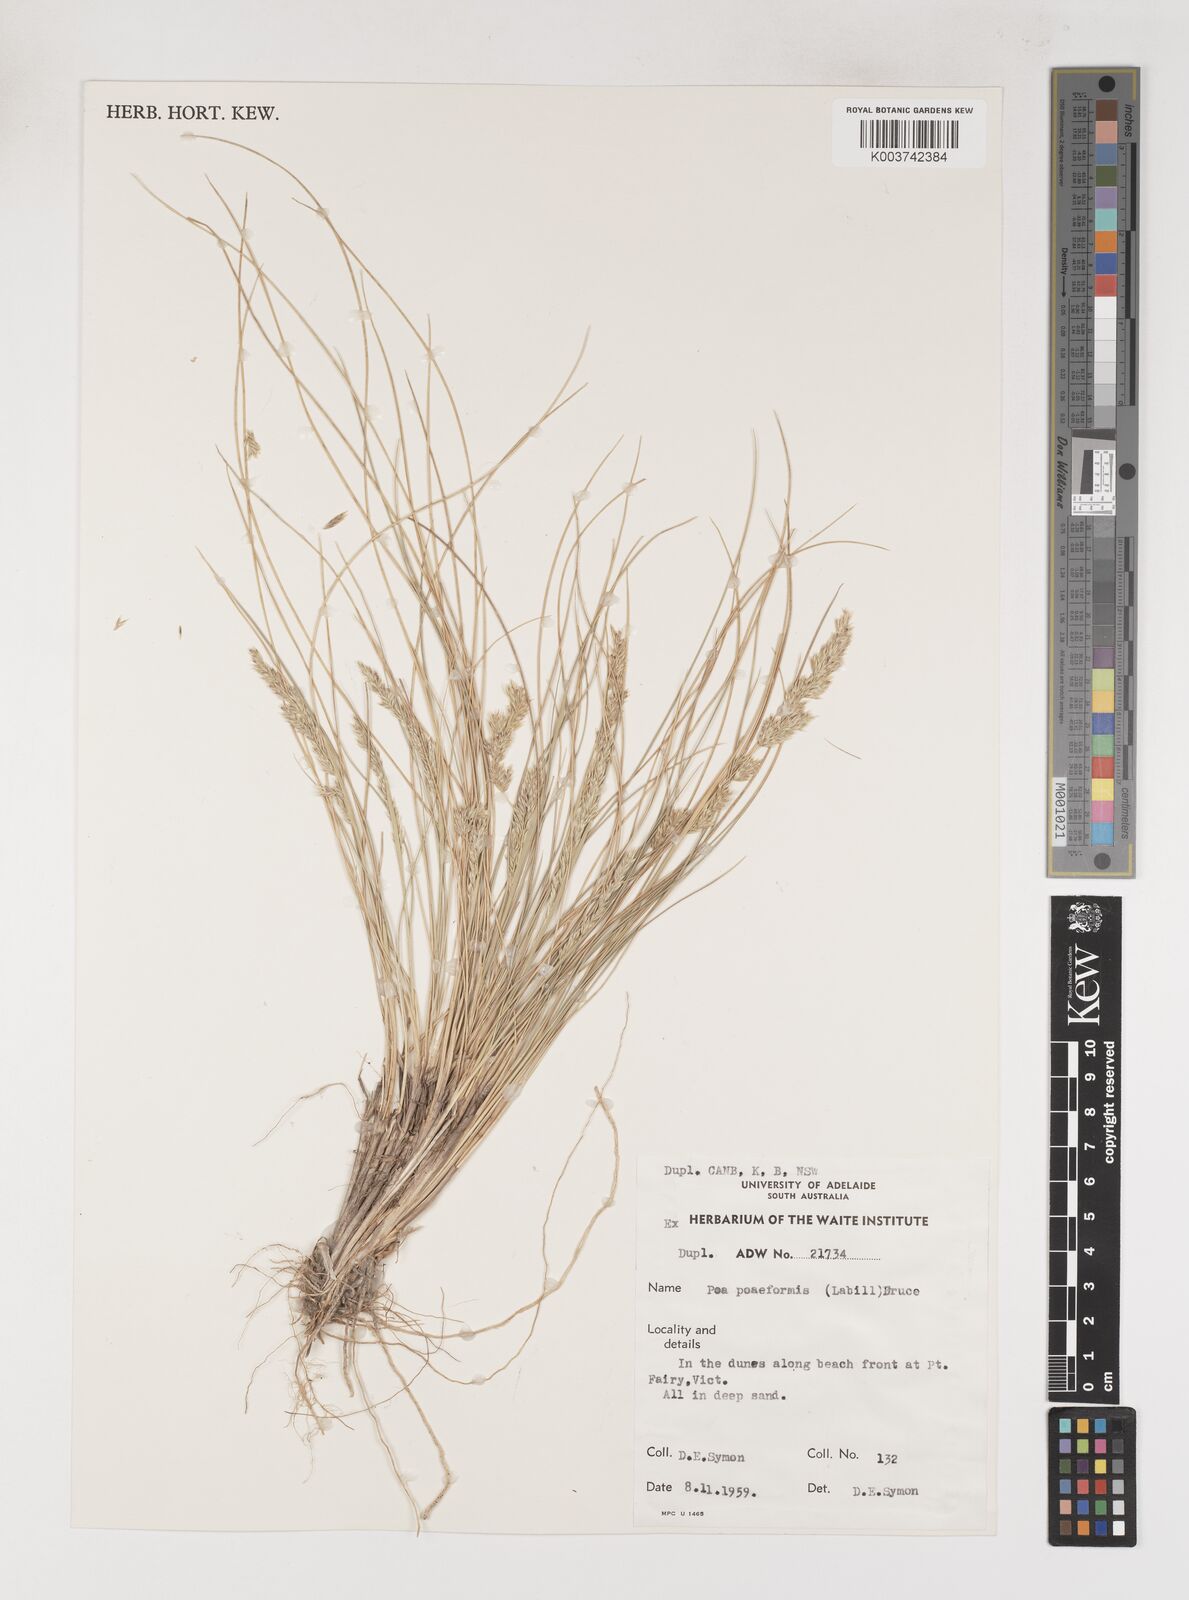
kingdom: Plantae
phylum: Tracheophyta
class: Liliopsida
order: Poales
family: Poaceae
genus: Poa
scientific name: Poa poiformis
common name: Tussock poa
